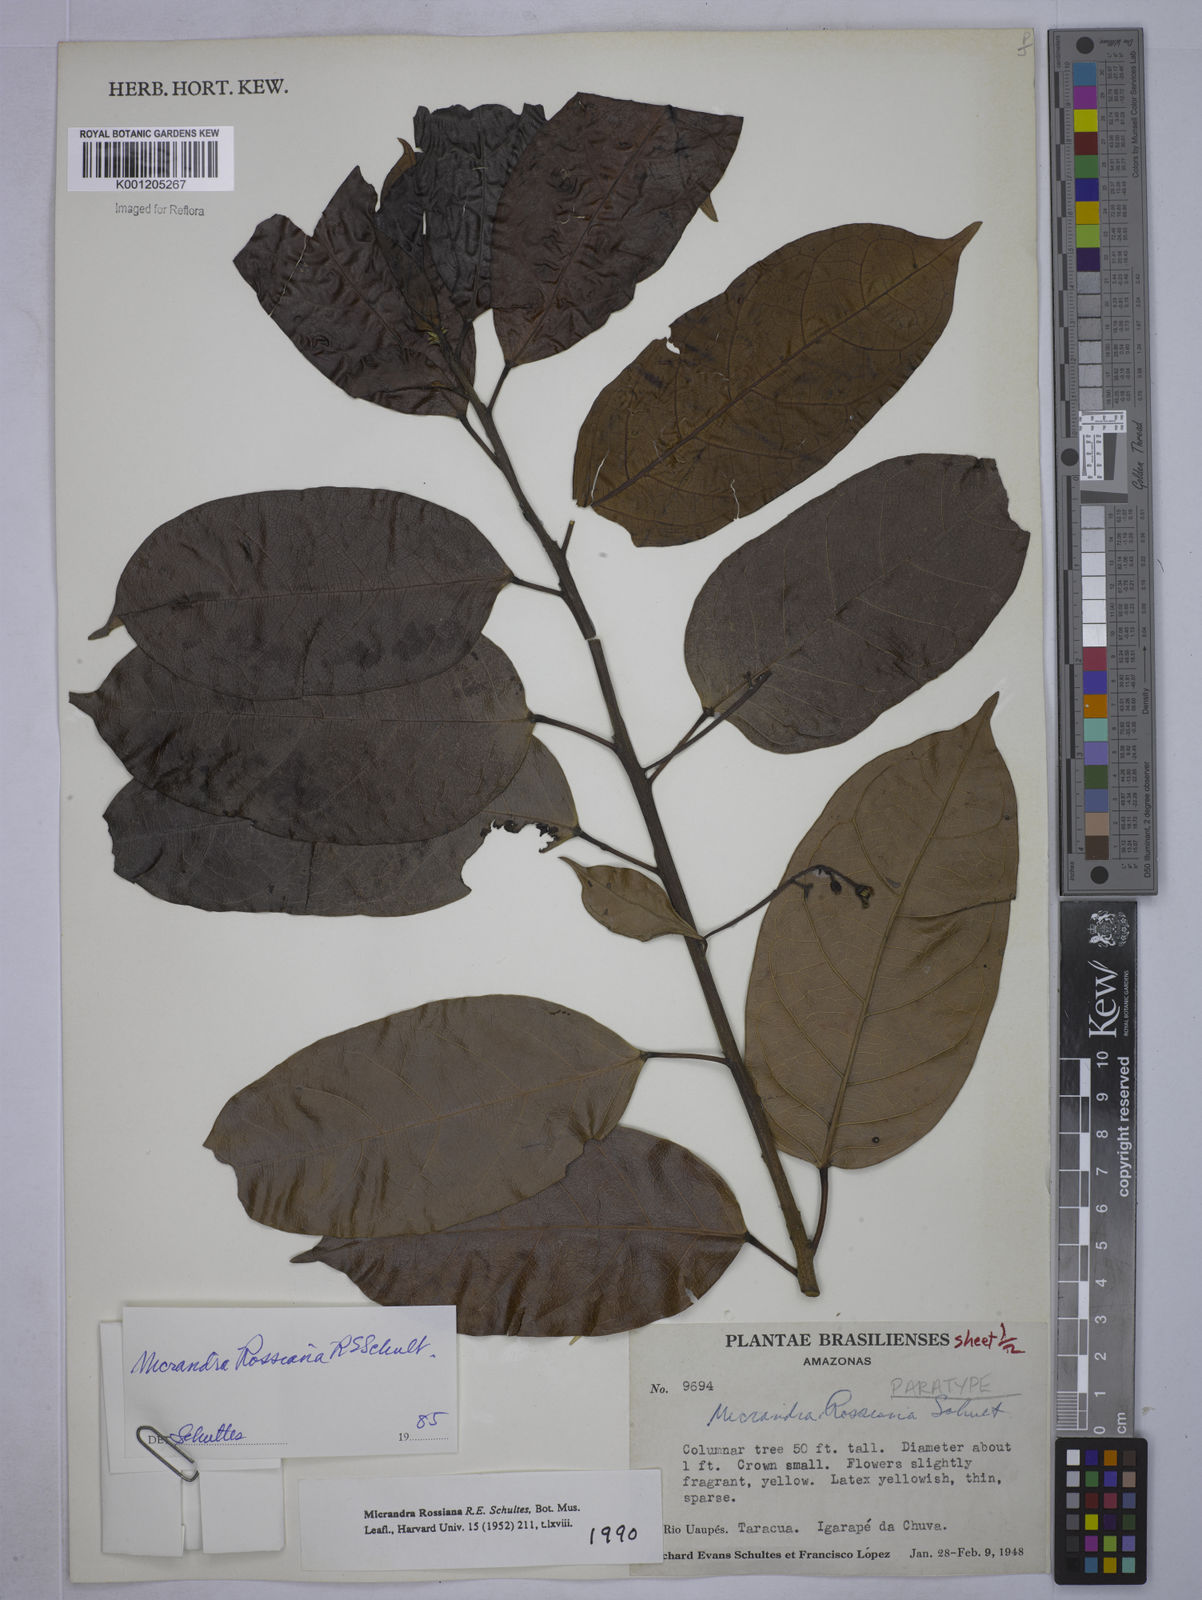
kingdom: Plantae
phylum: Tracheophyta
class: Magnoliopsida
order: Malpighiales
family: Euphorbiaceae
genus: Micrandra
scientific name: Micrandra rossiana
